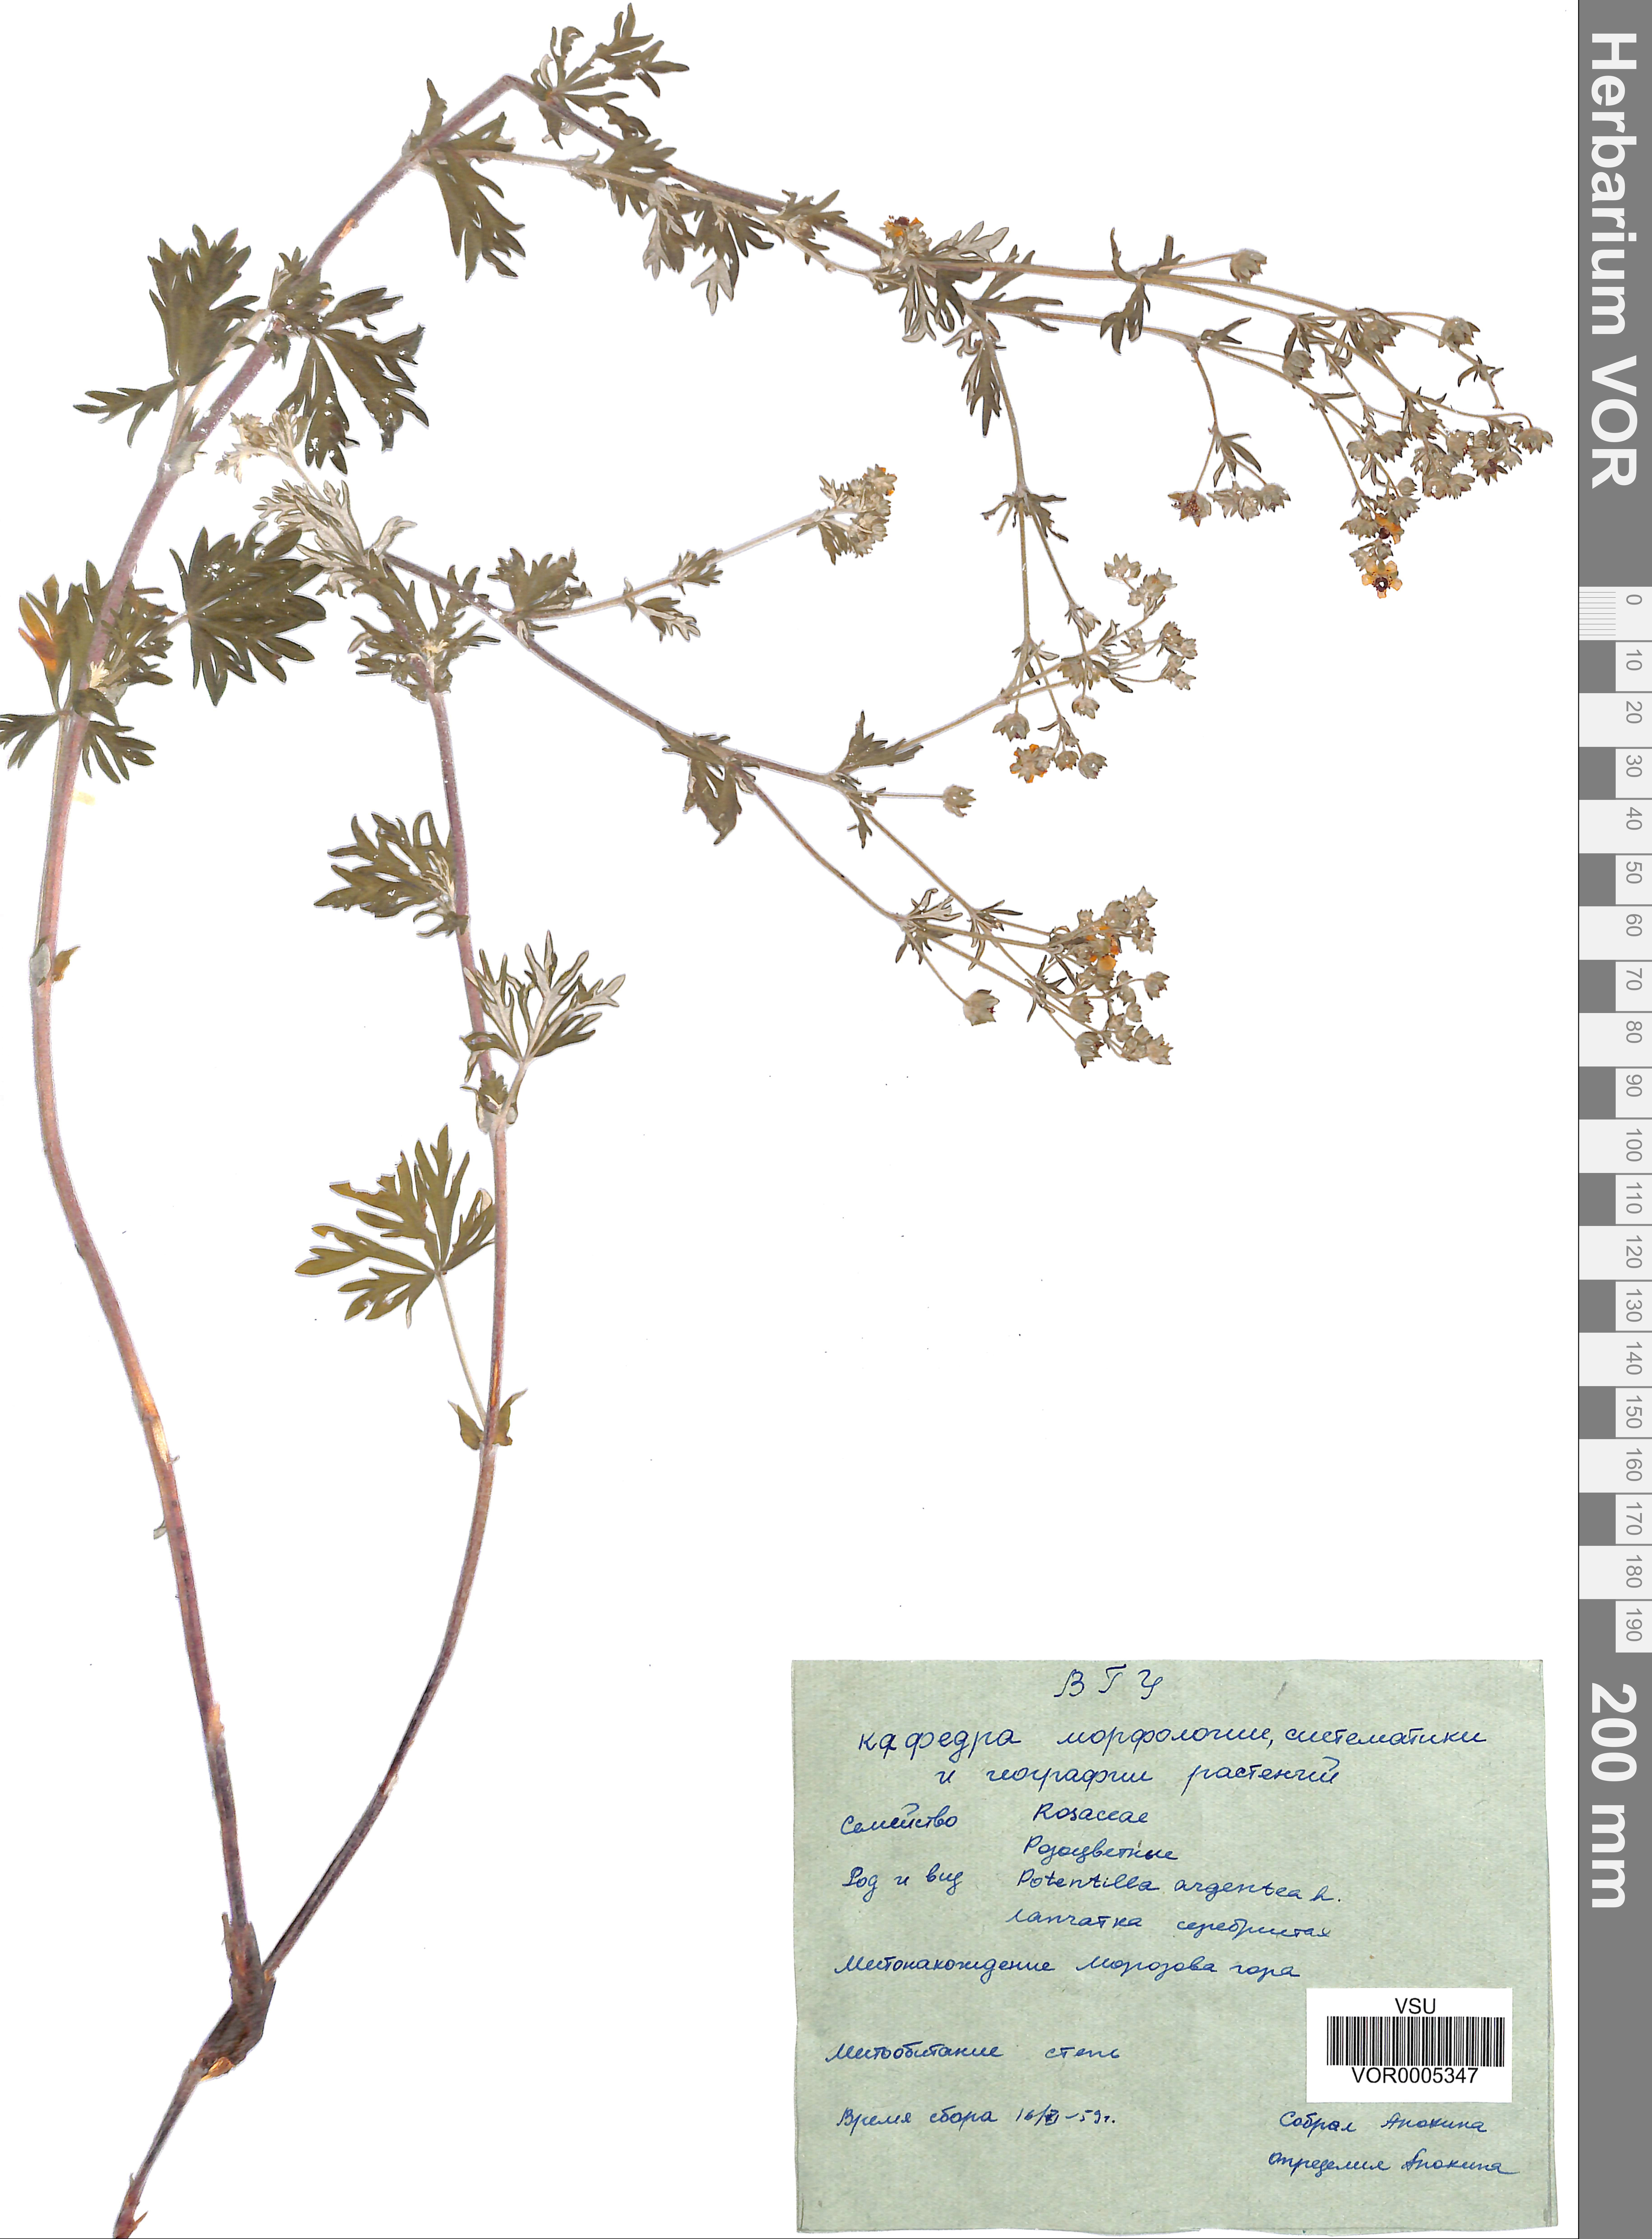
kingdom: Plantae
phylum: Tracheophyta
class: Magnoliopsida
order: Rosales
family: Rosaceae
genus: Potentilla
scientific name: Potentilla argentea
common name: Hoary cinquefoil
